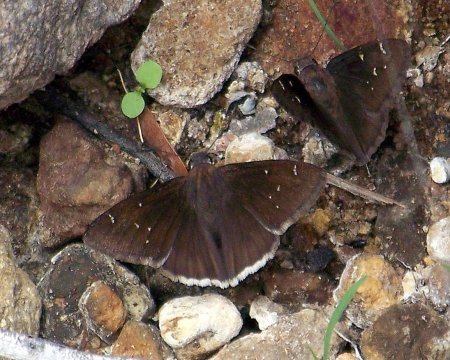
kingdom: Animalia
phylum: Arthropoda
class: Insecta
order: Lepidoptera
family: Hesperiidae
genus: Thorybes
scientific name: Thorybes drusius
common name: Drusius Cloudywing
